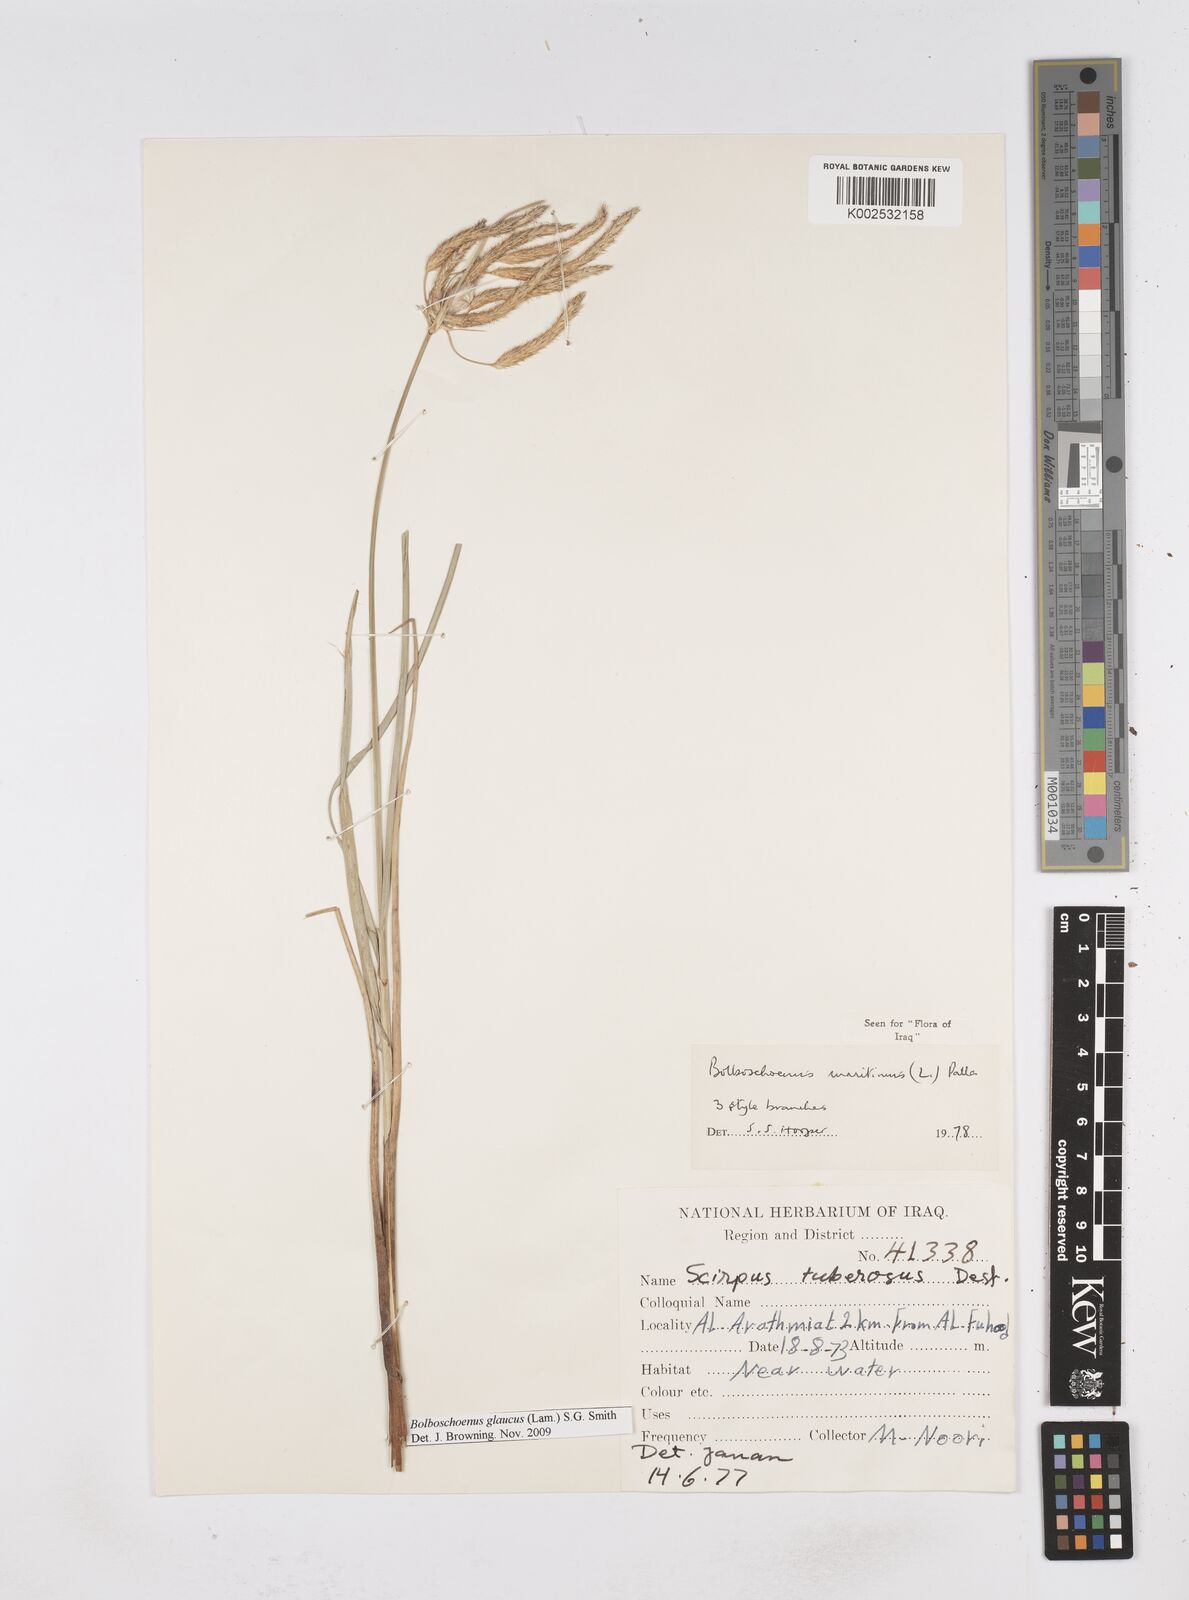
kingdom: Plantae
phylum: Tracheophyta
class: Liliopsida
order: Poales
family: Cyperaceae
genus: Bolboschoenus
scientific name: Bolboschoenus maritimus
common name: Sea club-rush
